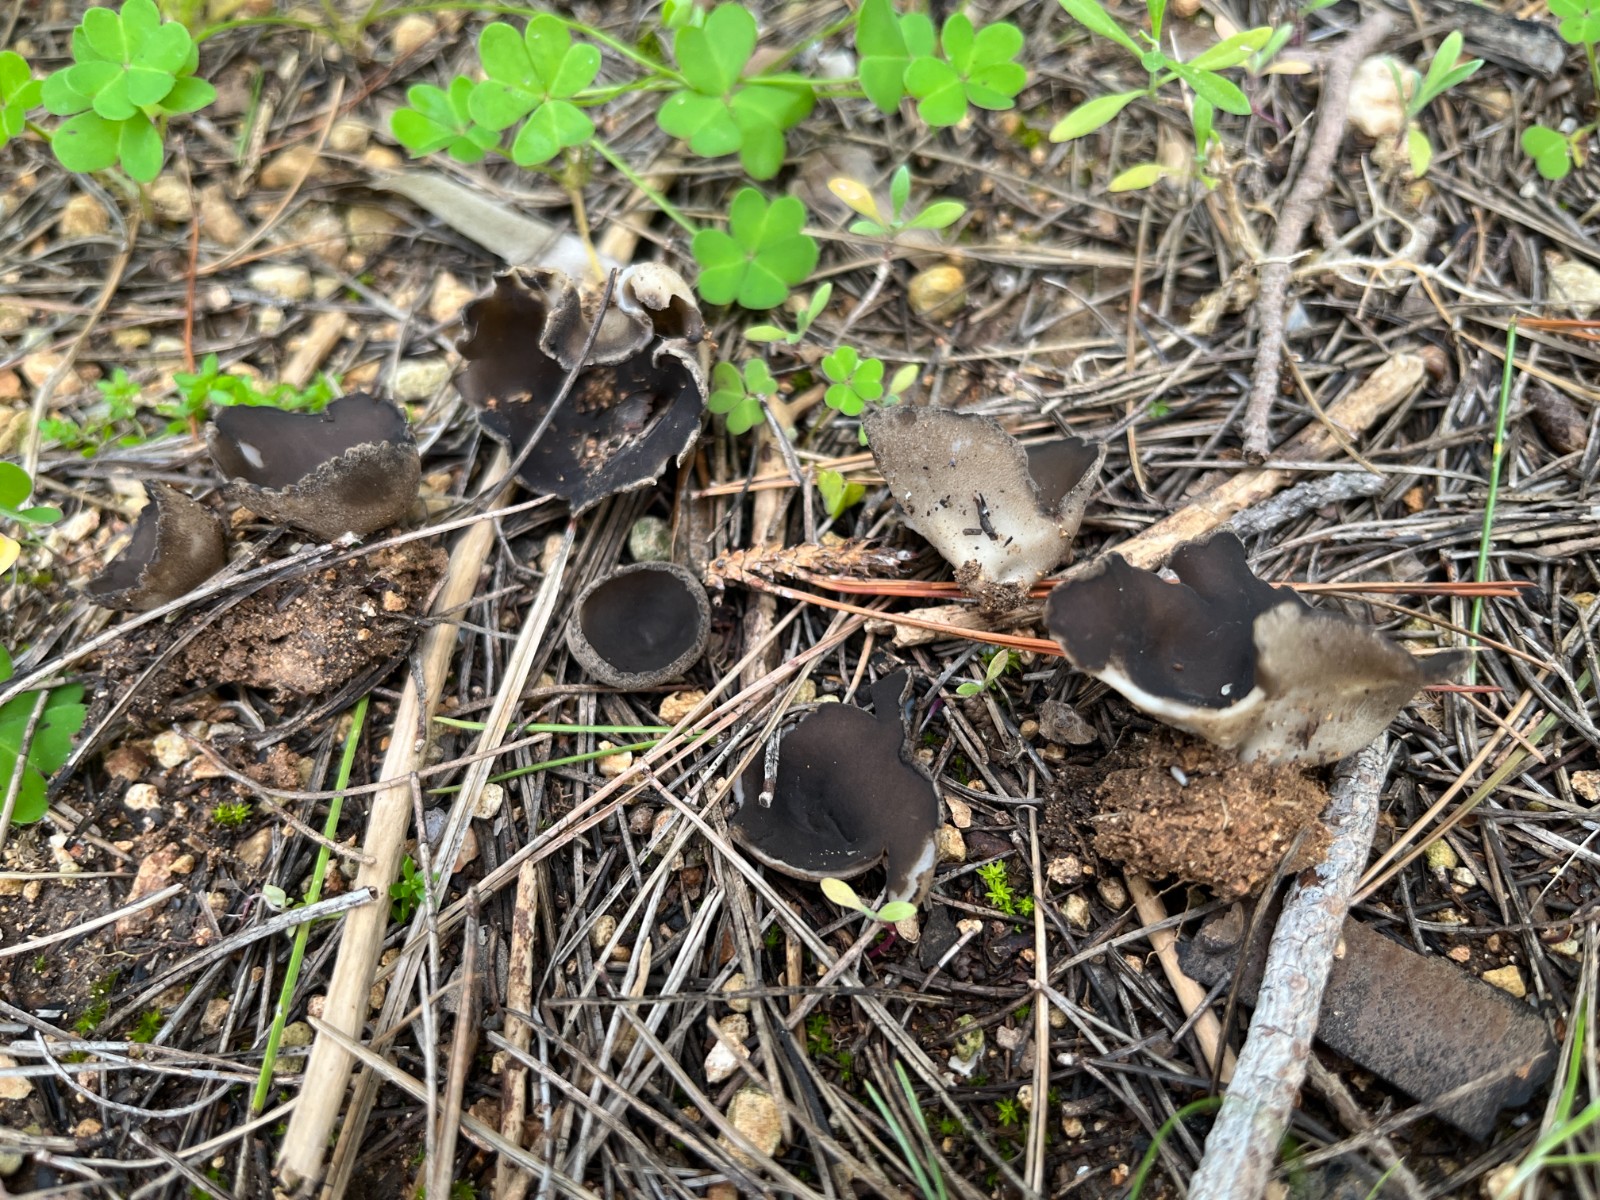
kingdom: Fungi
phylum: Ascomycota
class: Pezizomycetes
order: Pezizales
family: Helvellaceae
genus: Dissingia
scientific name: Dissingia leucomelaena
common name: sorthvid foldhat
